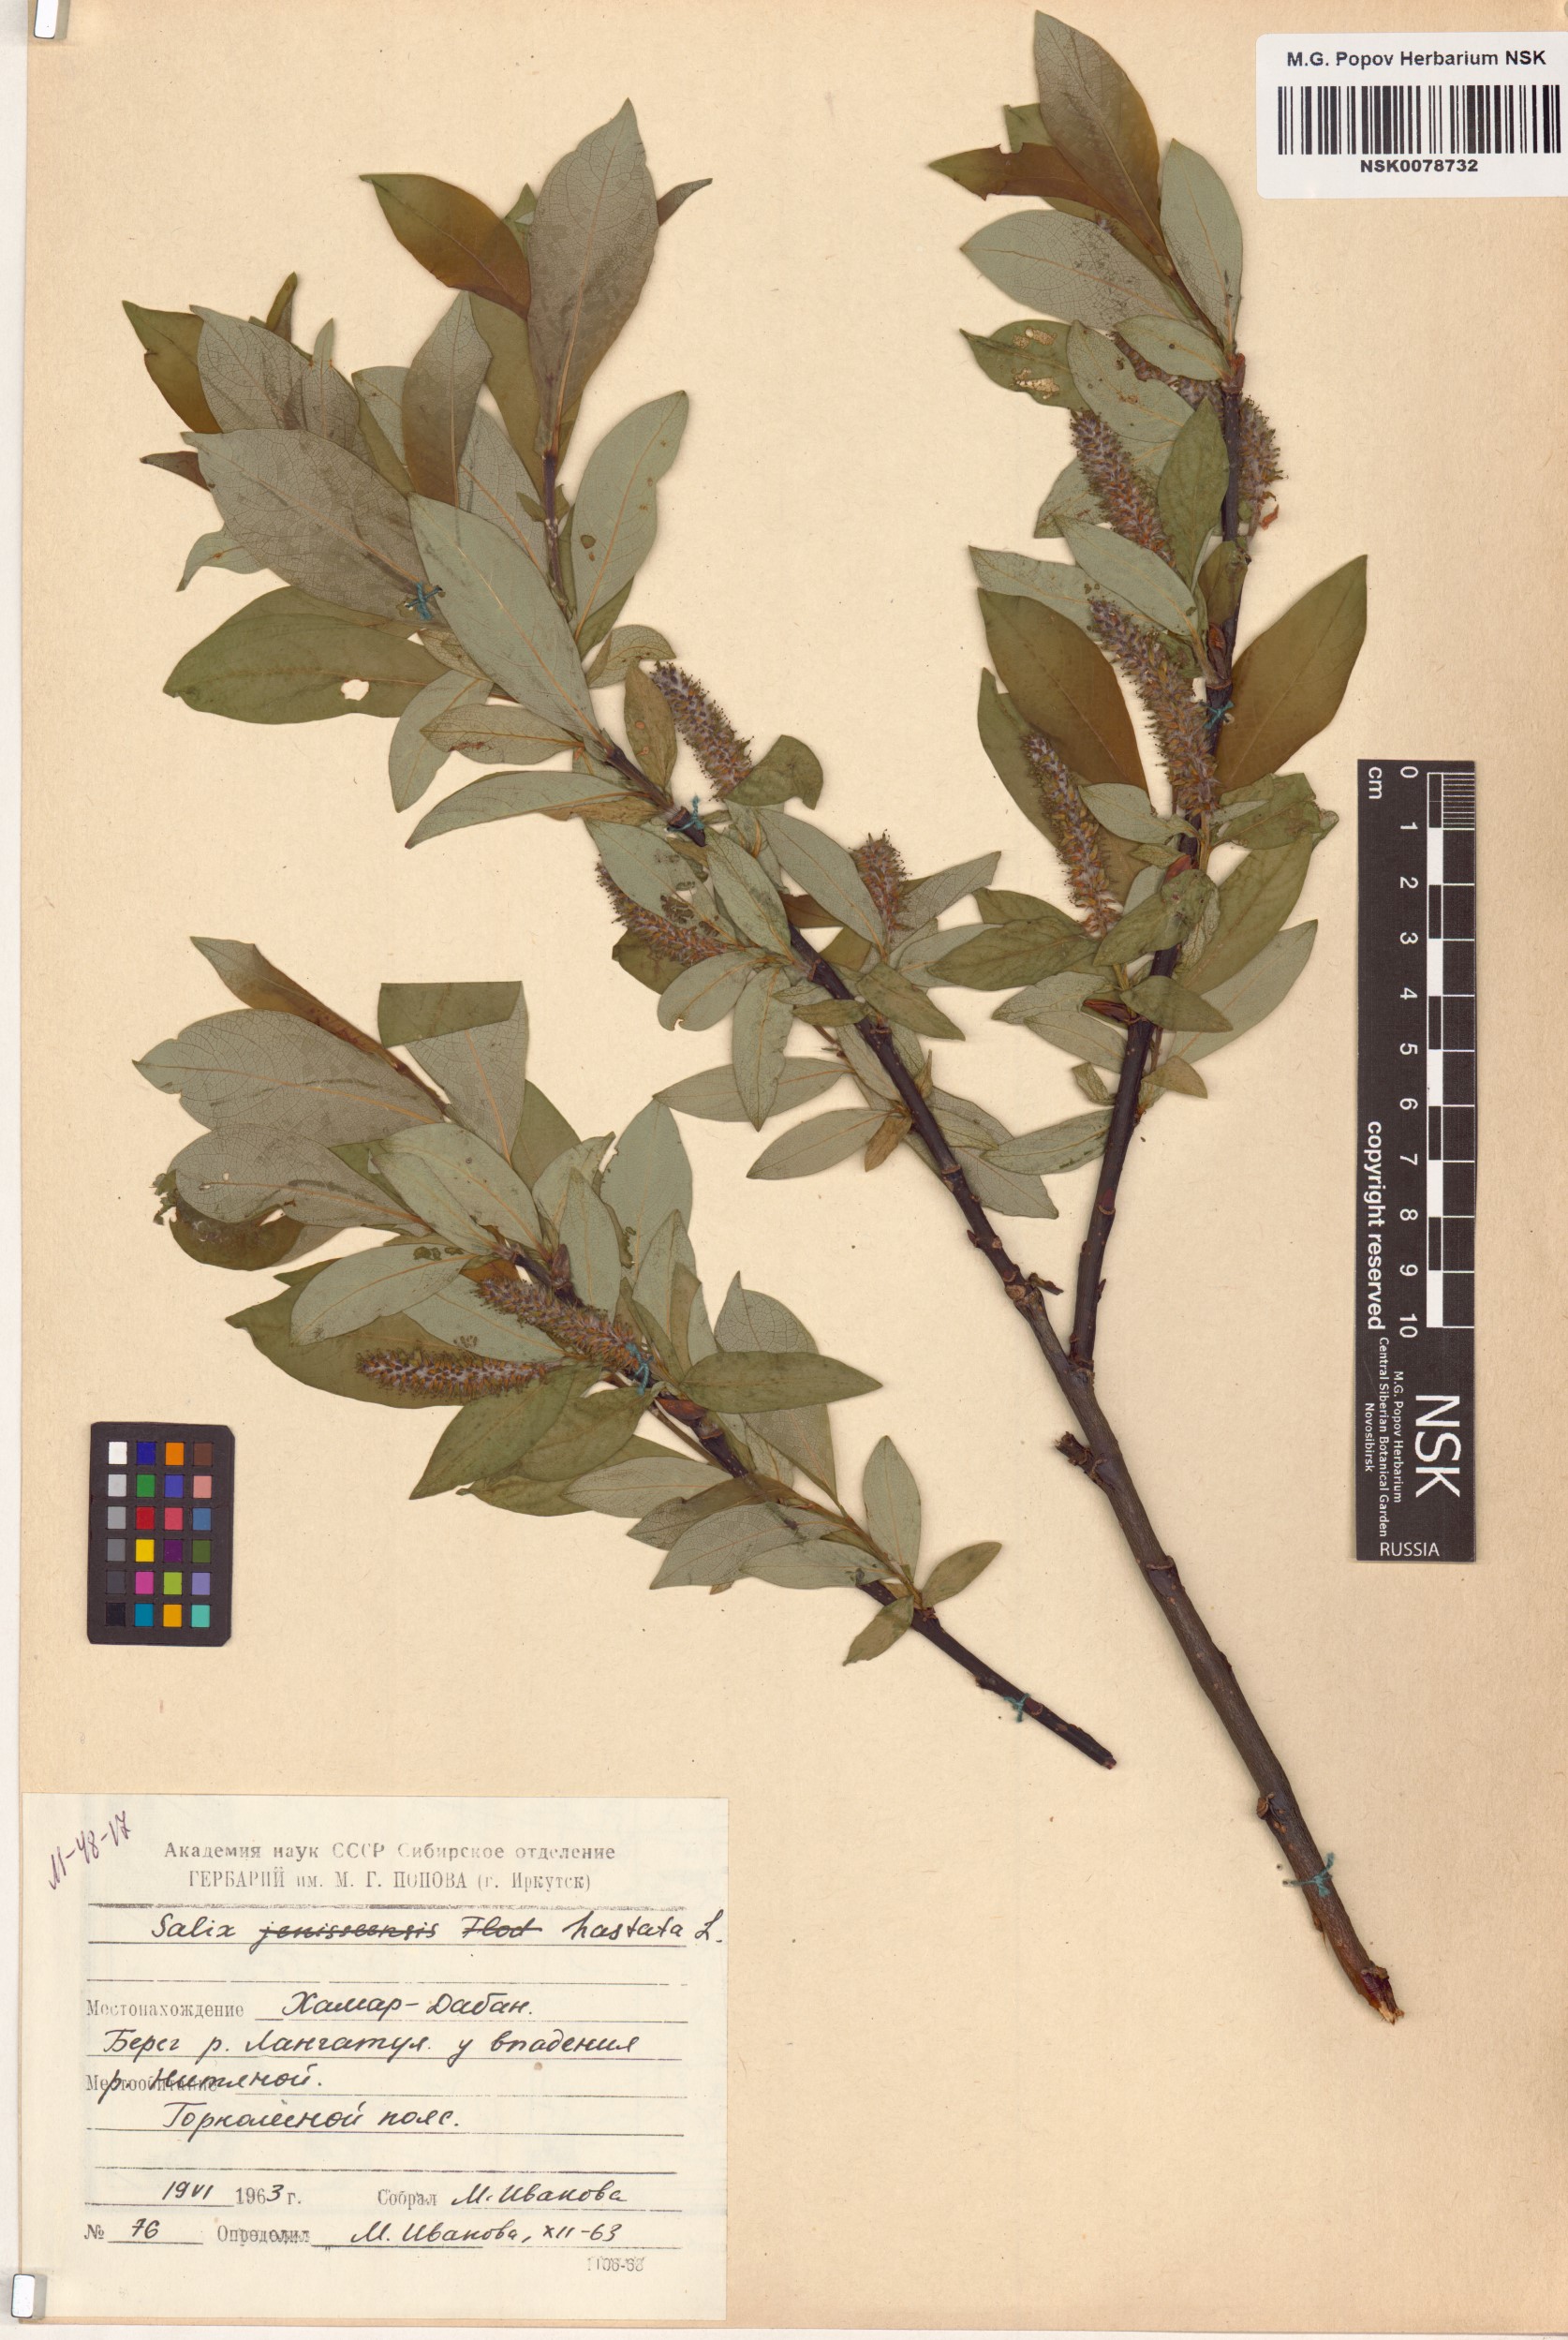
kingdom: Plantae
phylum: Tracheophyta
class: Magnoliopsida
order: Malpighiales
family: Salicaceae
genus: Salix
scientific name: Salix hastata
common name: Halberd willow
